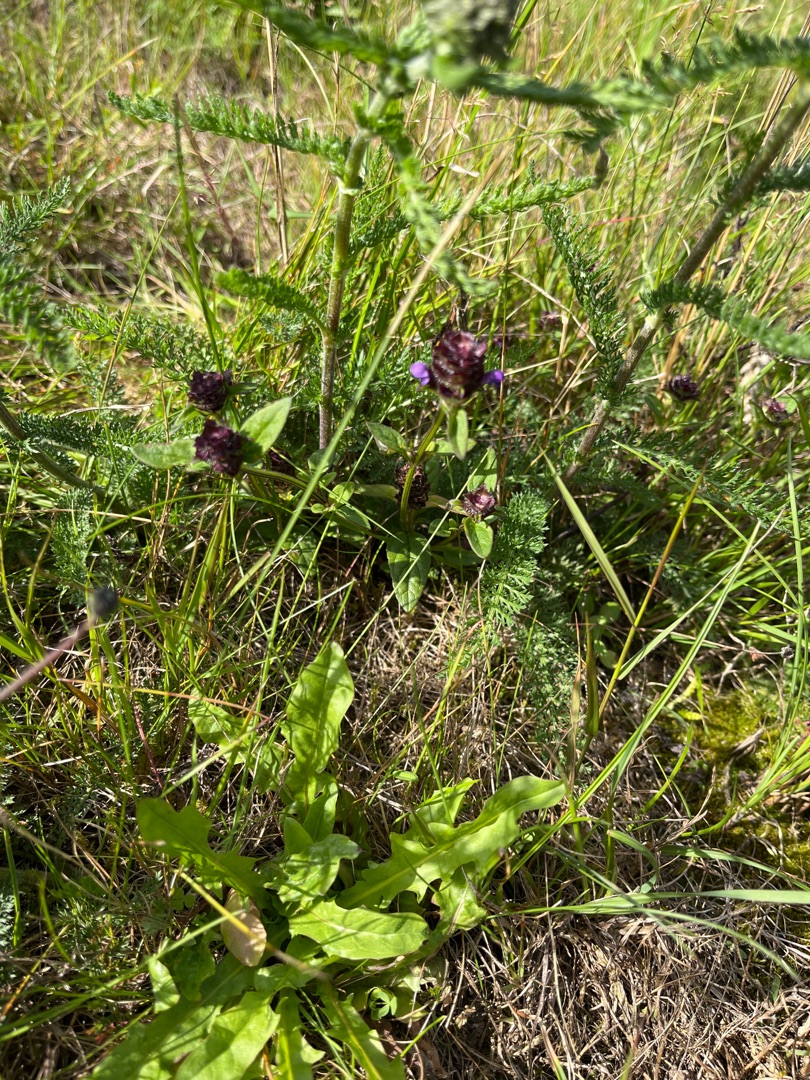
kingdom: Plantae
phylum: Tracheophyta
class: Magnoliopsida
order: Lamiales
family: Lamiaceae
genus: Prunella
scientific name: Prunella vulgaris
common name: Almindelig brunelle
